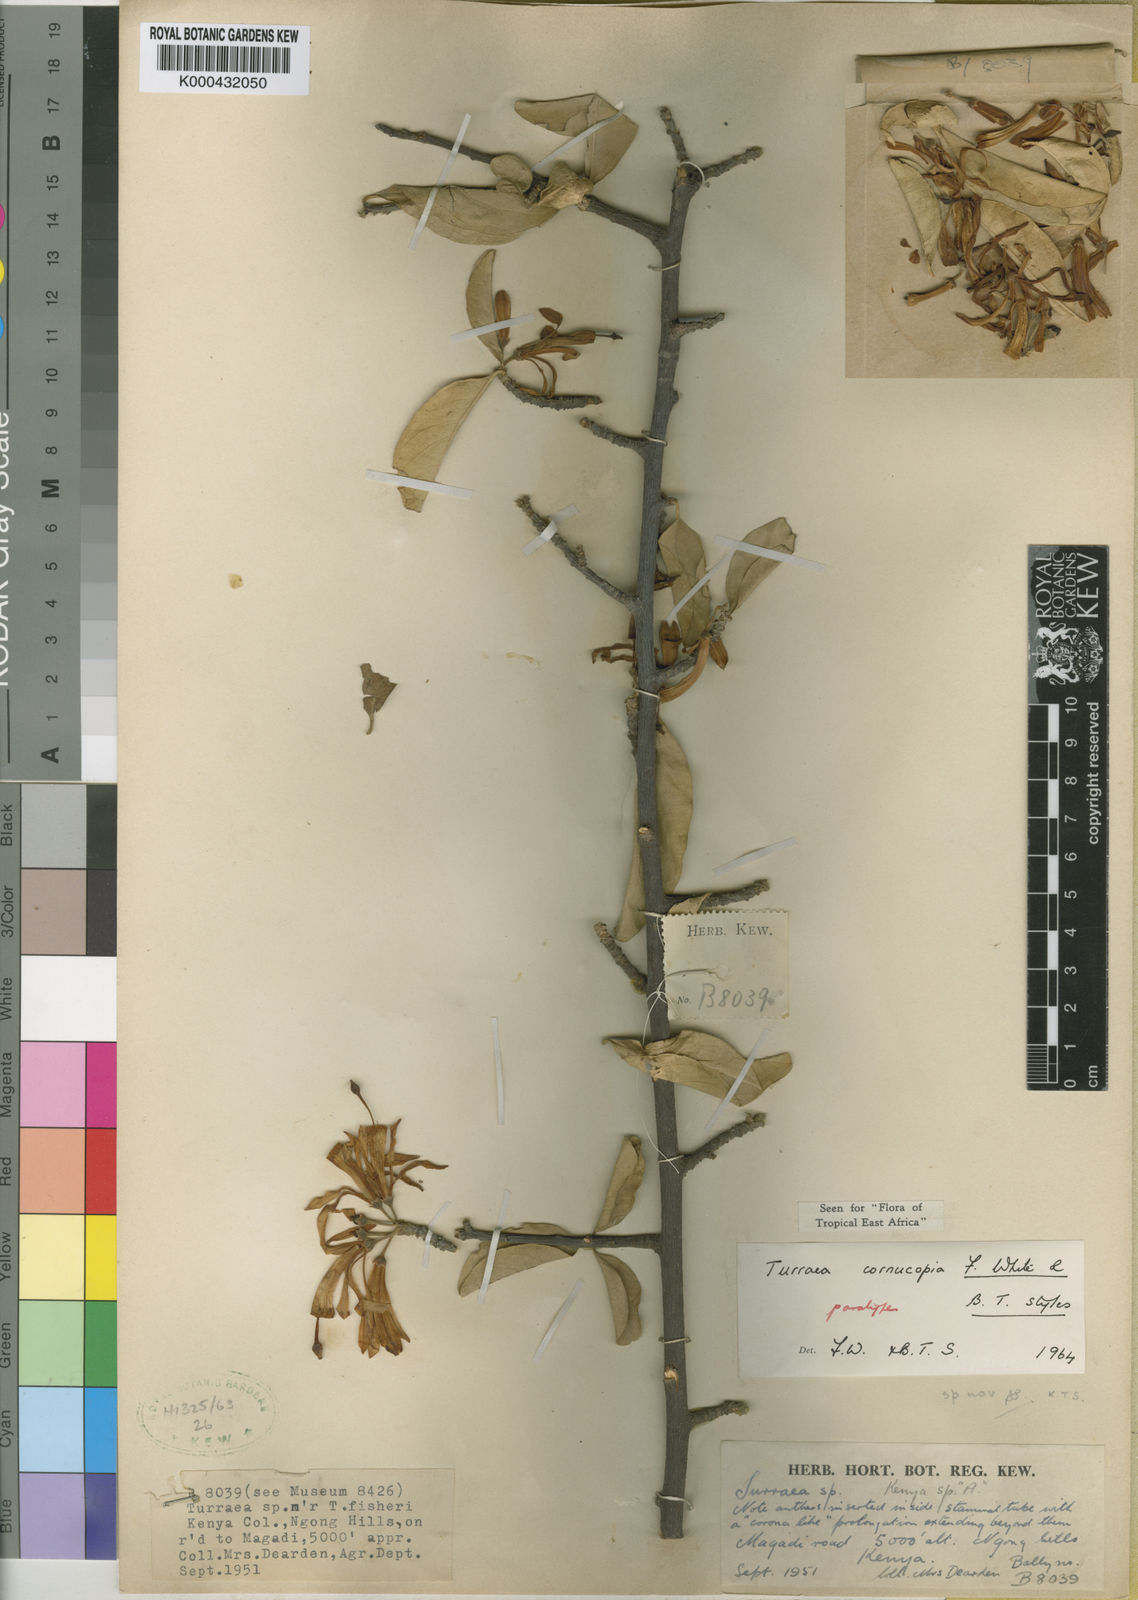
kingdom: Plantae
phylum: Tracheophyta
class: Magnoliopsida
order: Sapindales
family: Meliaceae
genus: Turraea
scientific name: Turraea cornucopia
